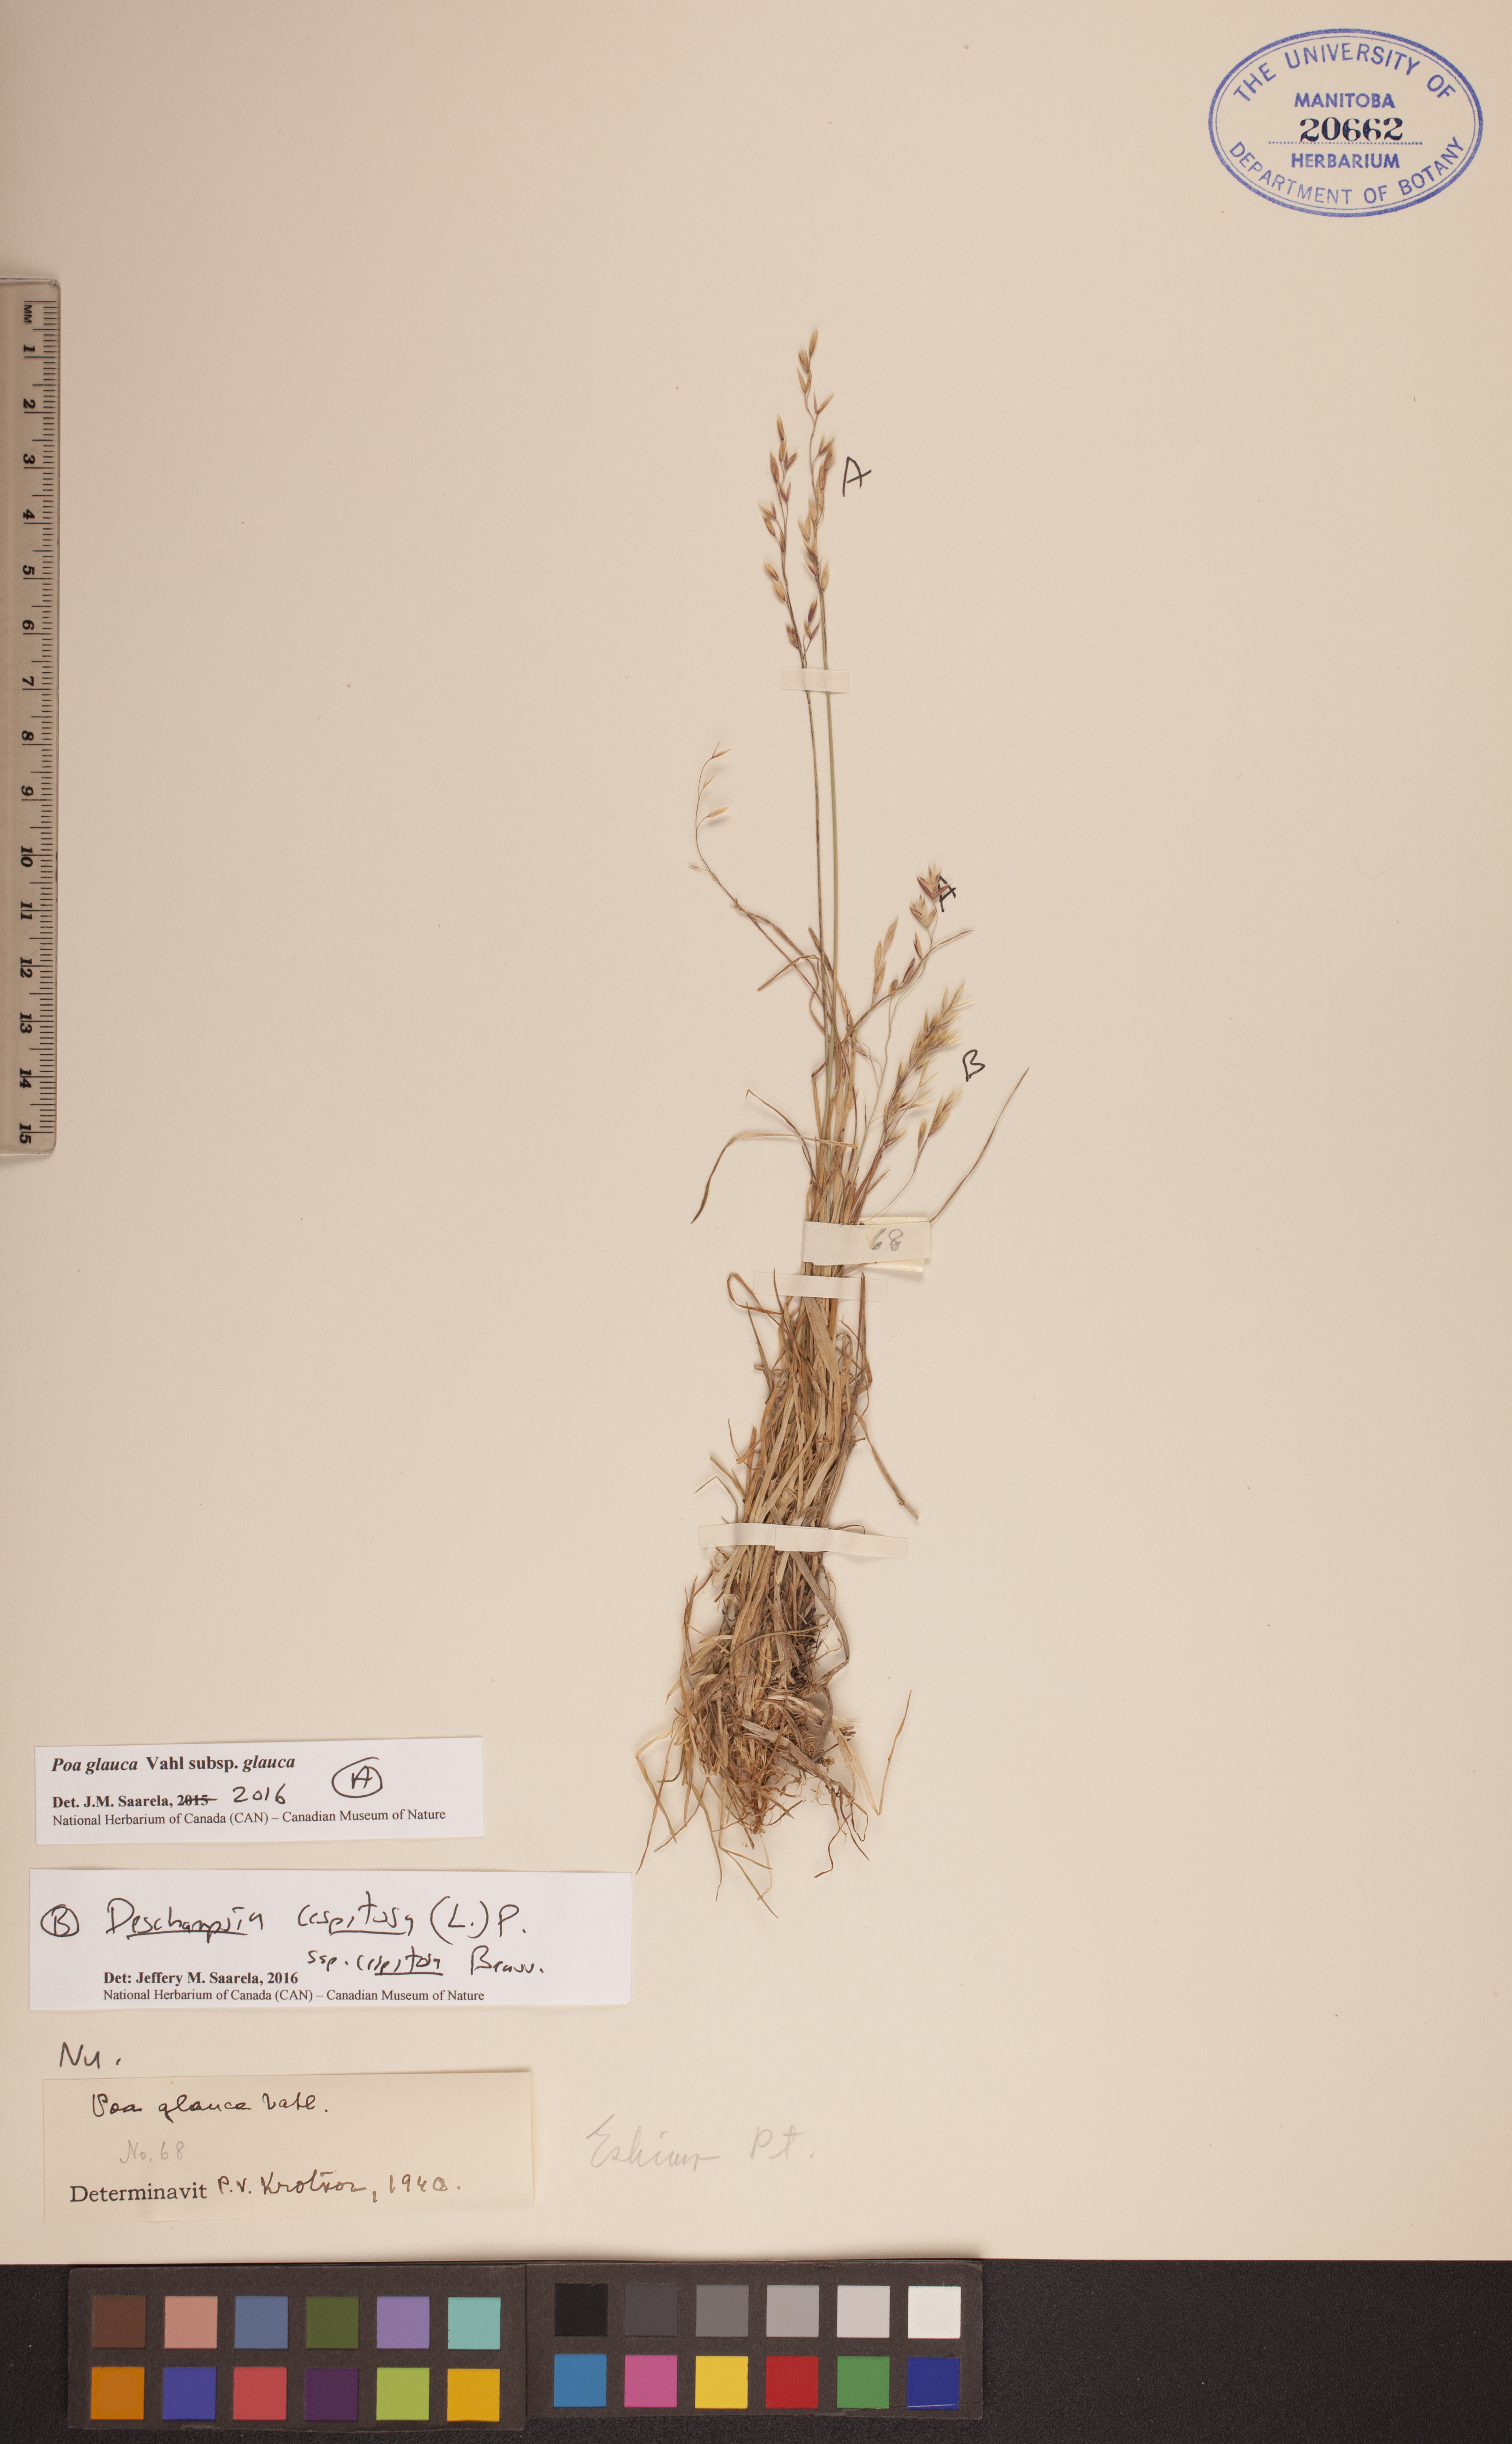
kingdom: Plantae
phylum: Tracheophyta
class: Liliopsida
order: Poales
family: Poaceae
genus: Poa
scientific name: Poa glauca
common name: Glaucous bluegrass
